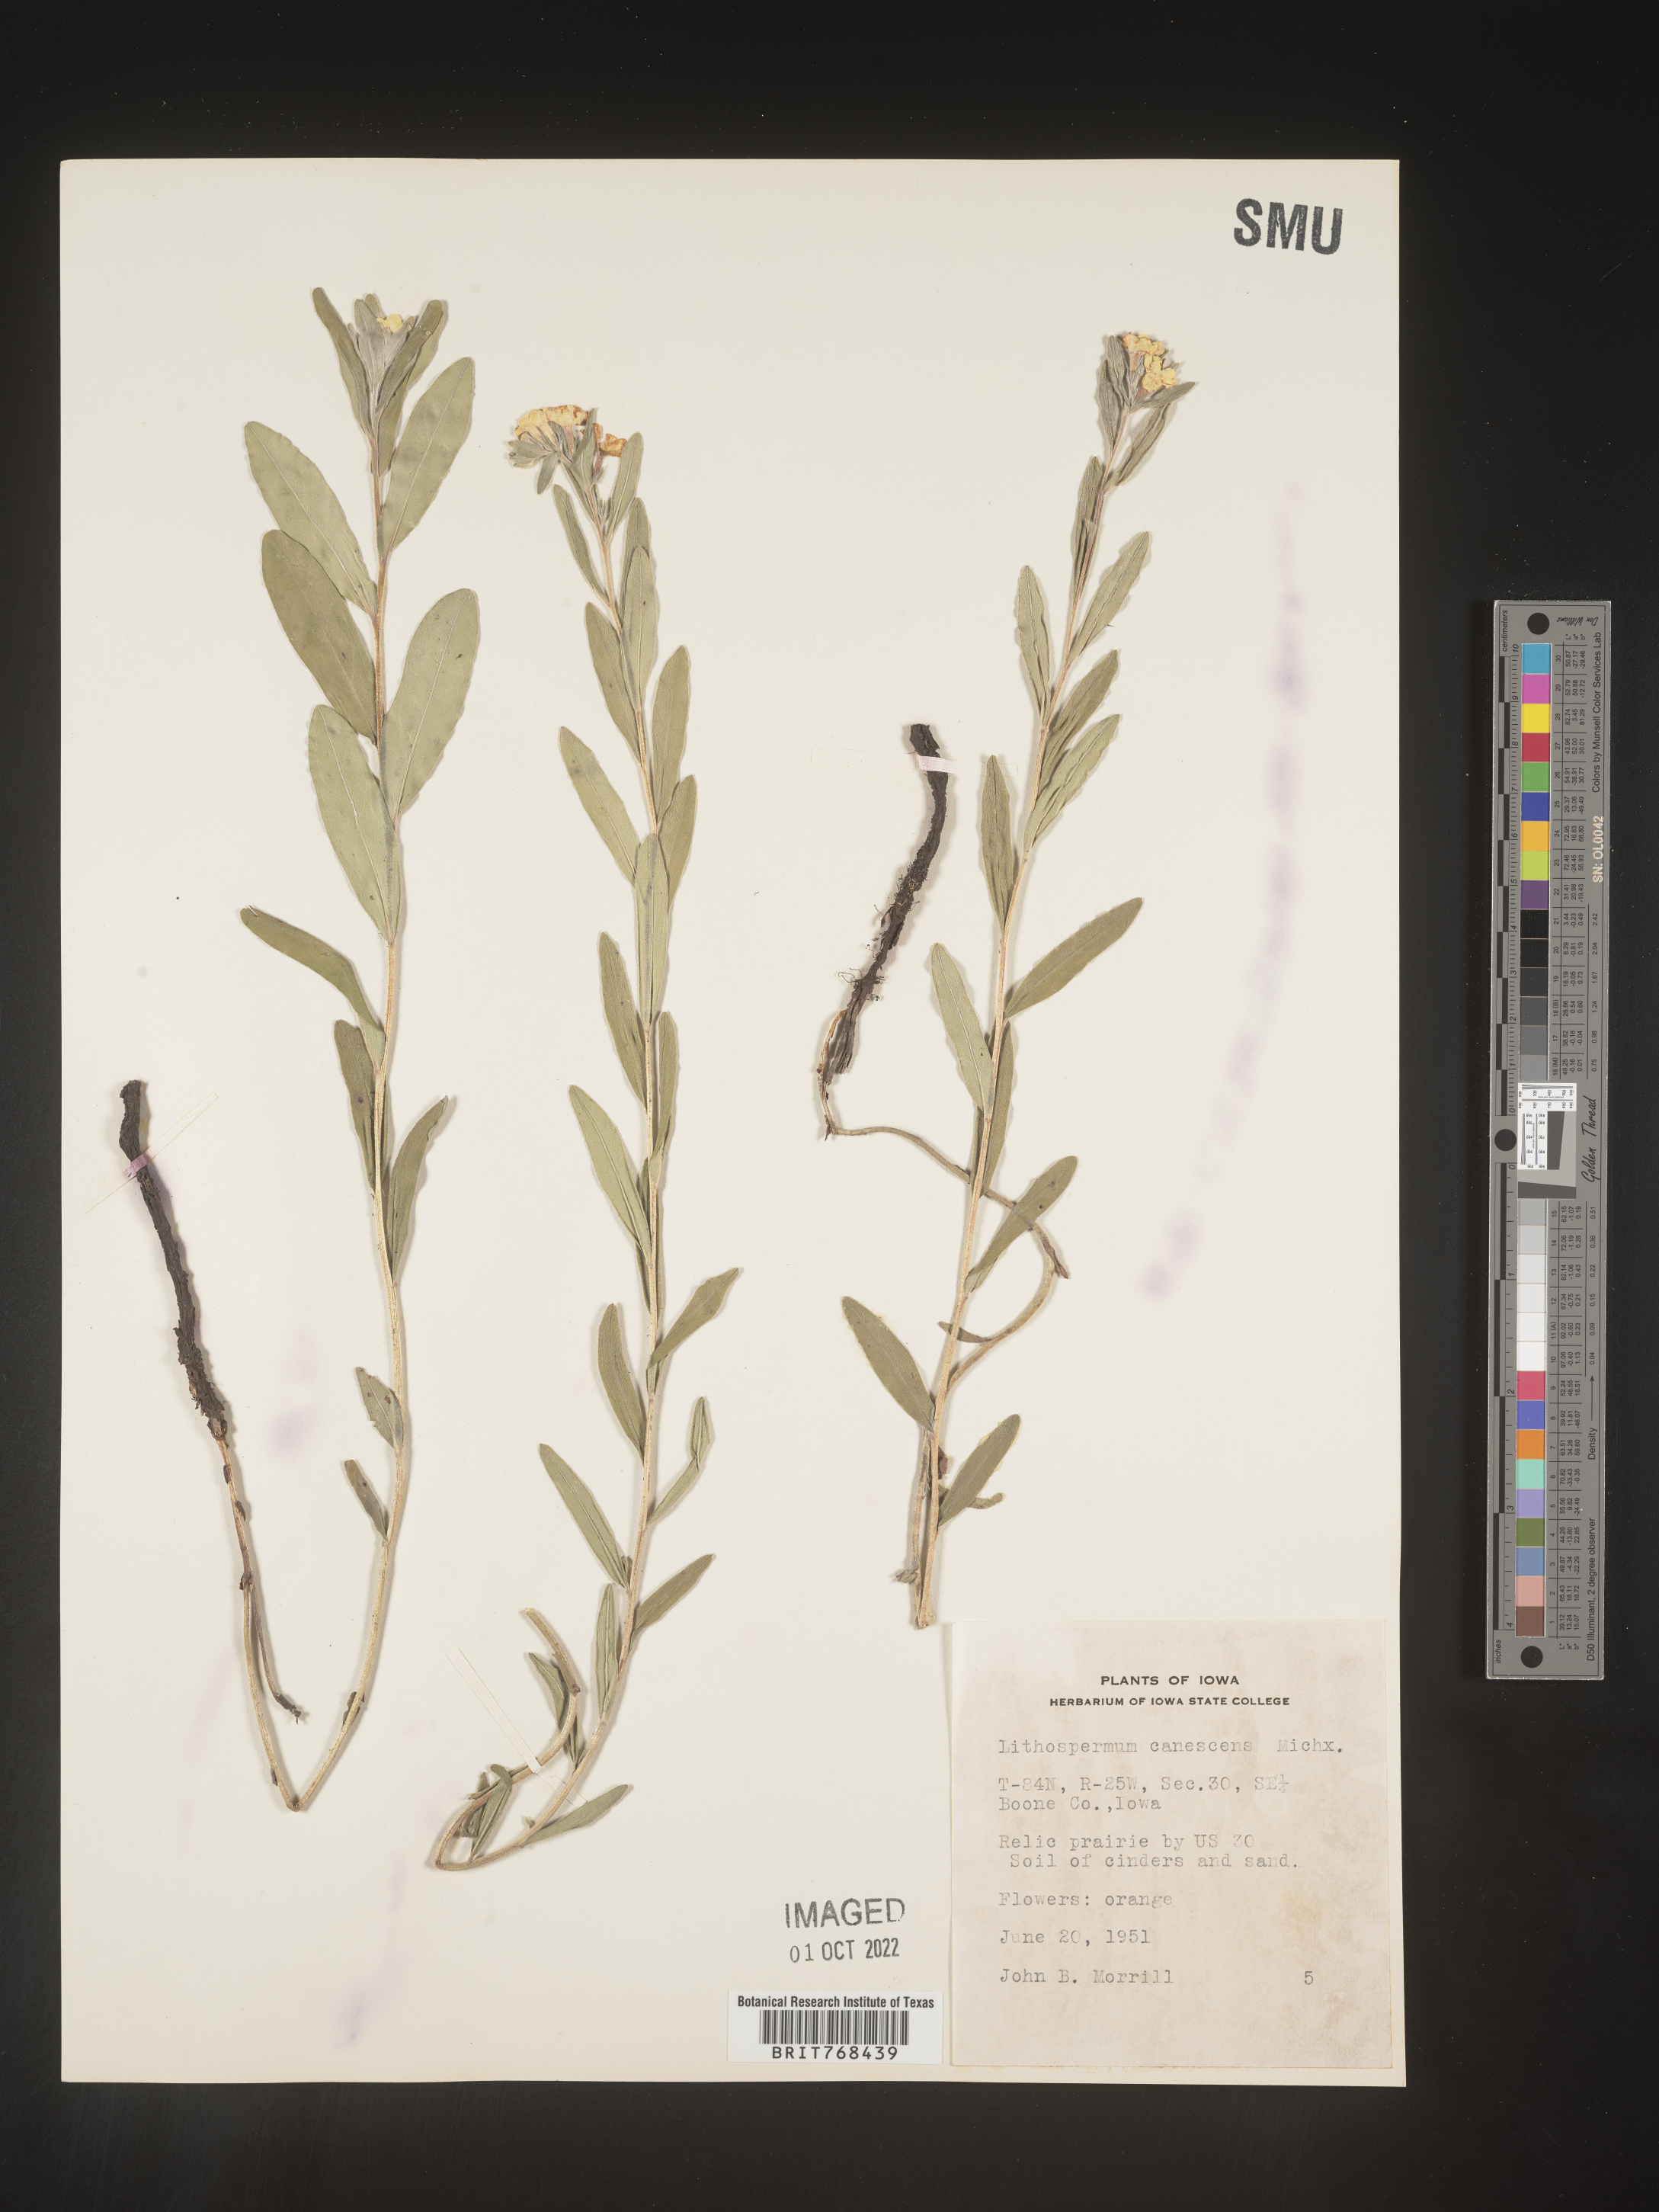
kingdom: Plantae
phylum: Tracheophyta
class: Magnoliopsida
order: Boraginales
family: Boraginaceae
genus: Lithospermum
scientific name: Lithospermum canescens
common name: Hoary puccoon
